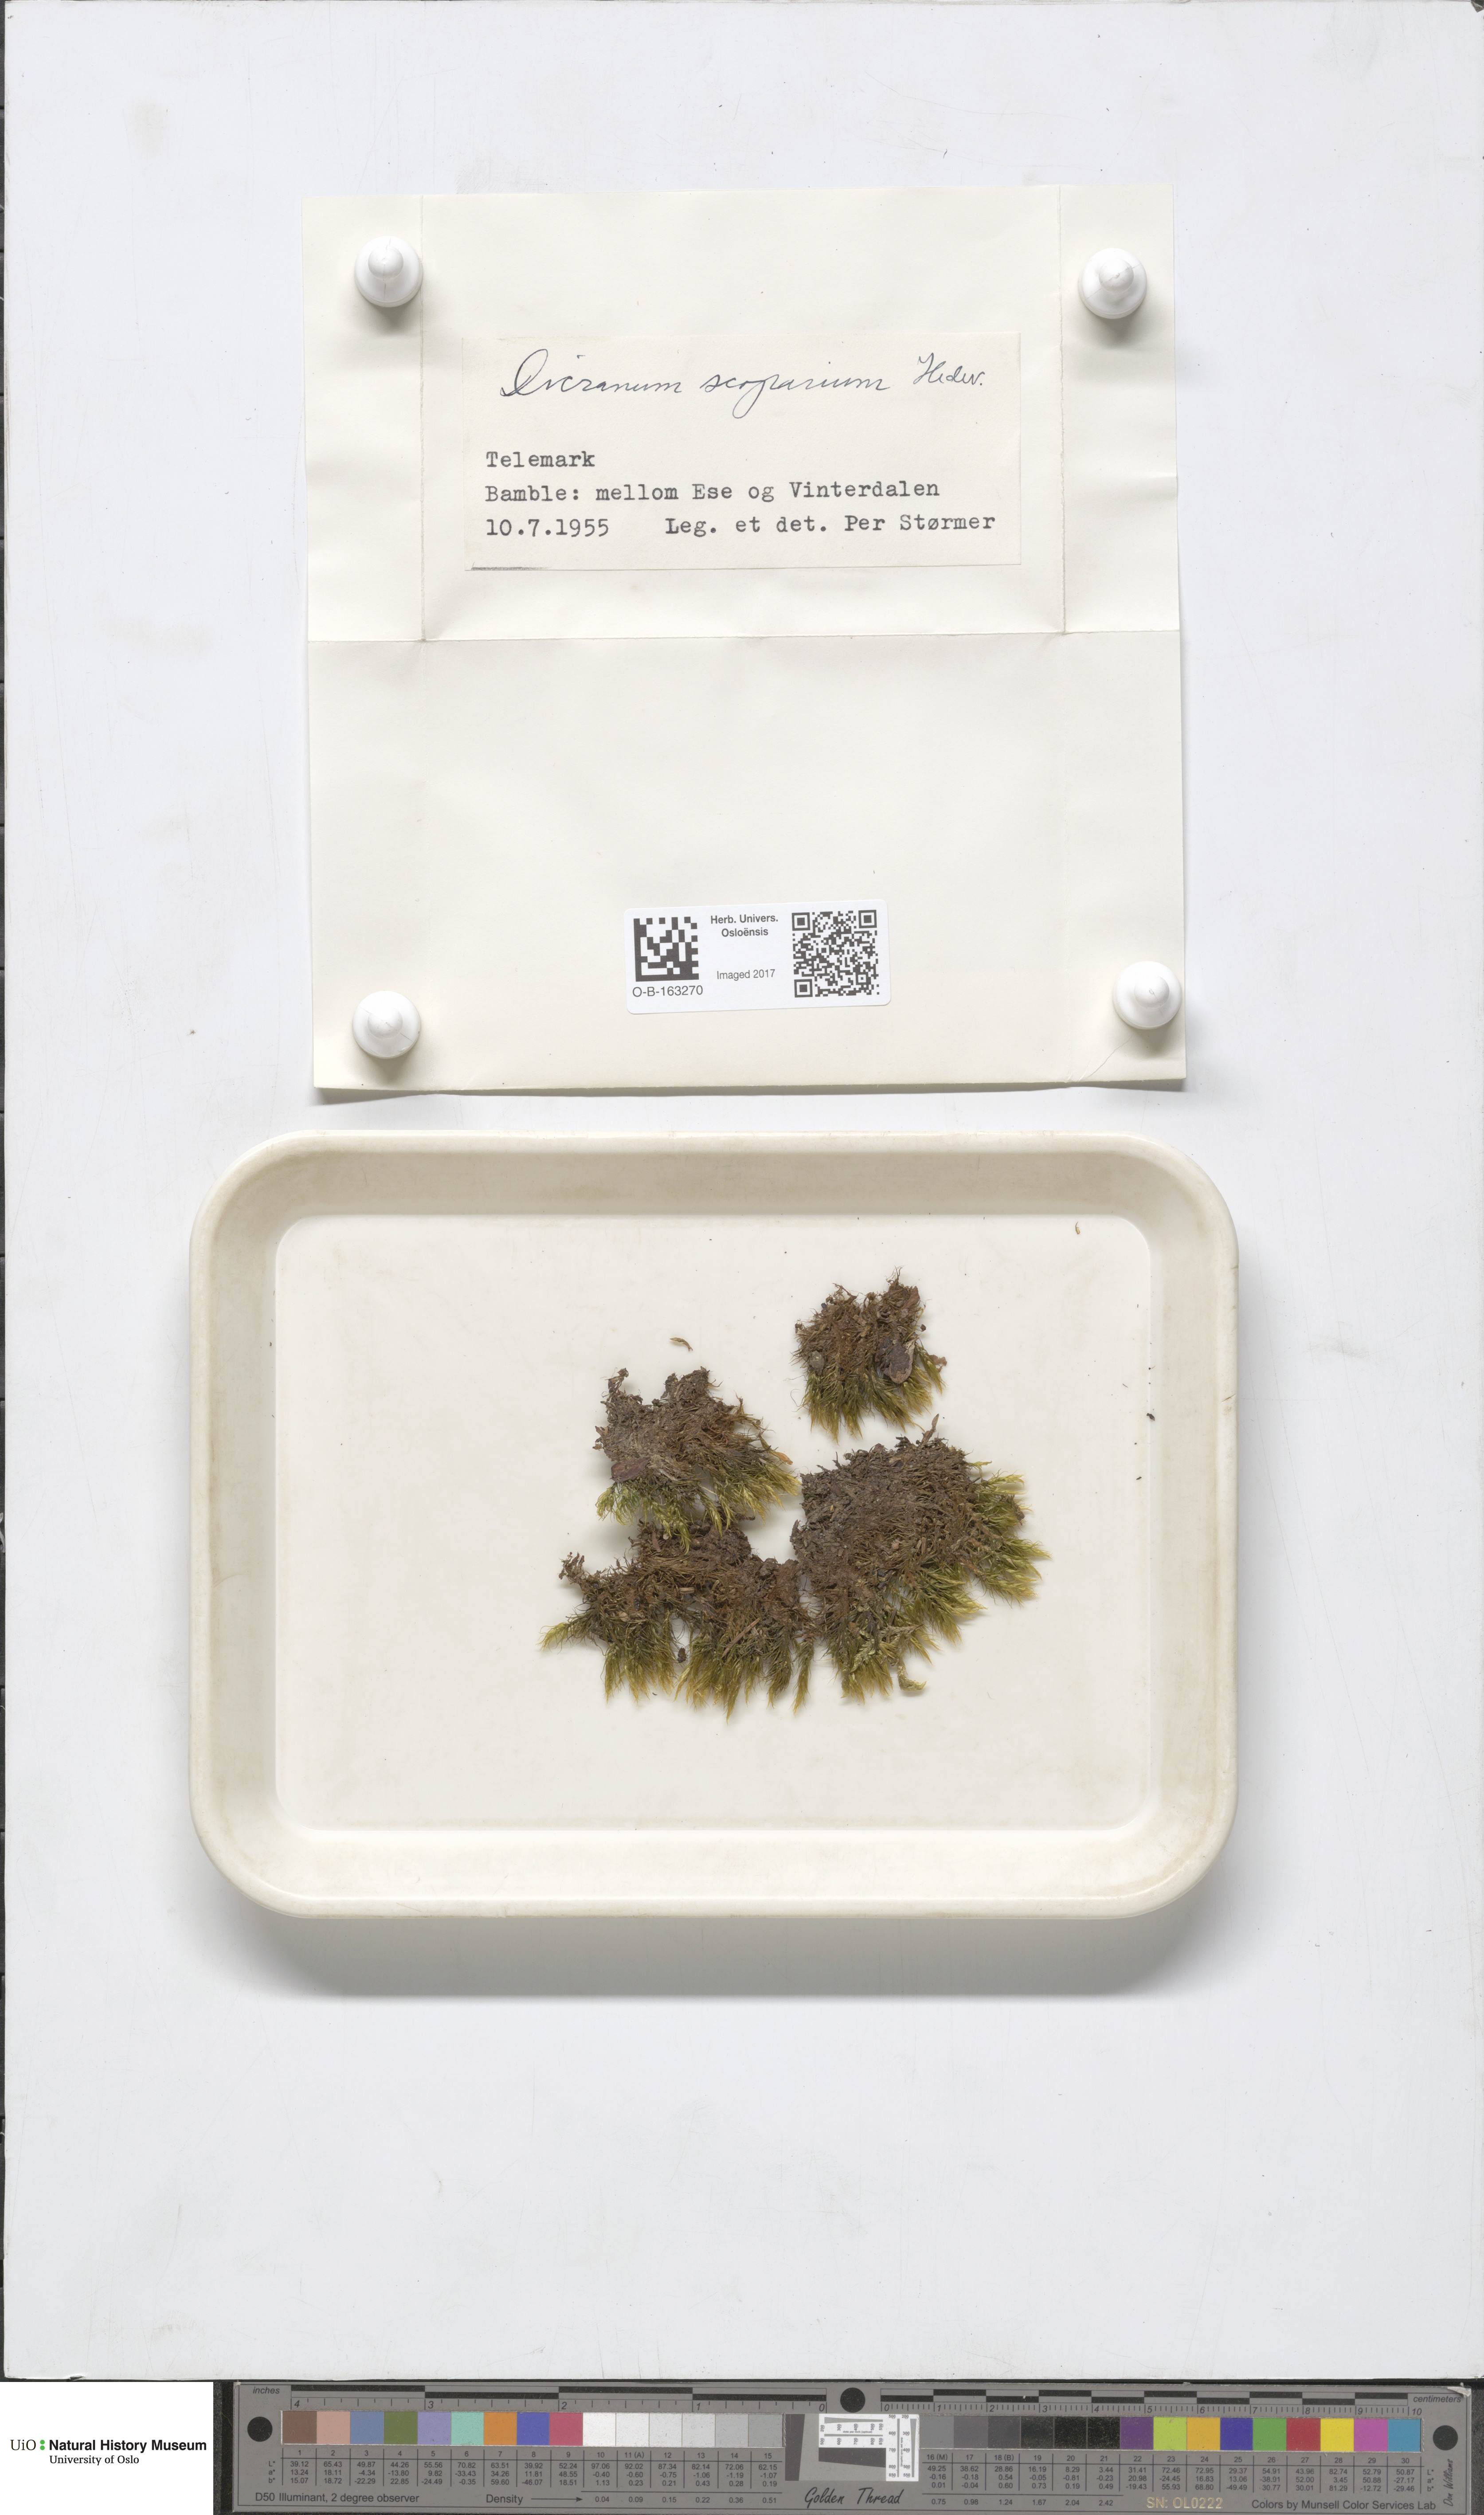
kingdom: Plantae
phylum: Bryophyta
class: Bryopsida
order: Dicranales
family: Dicranaceae
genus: Dicranum
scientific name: Dicranum scoparium
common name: Broom fork-moss
